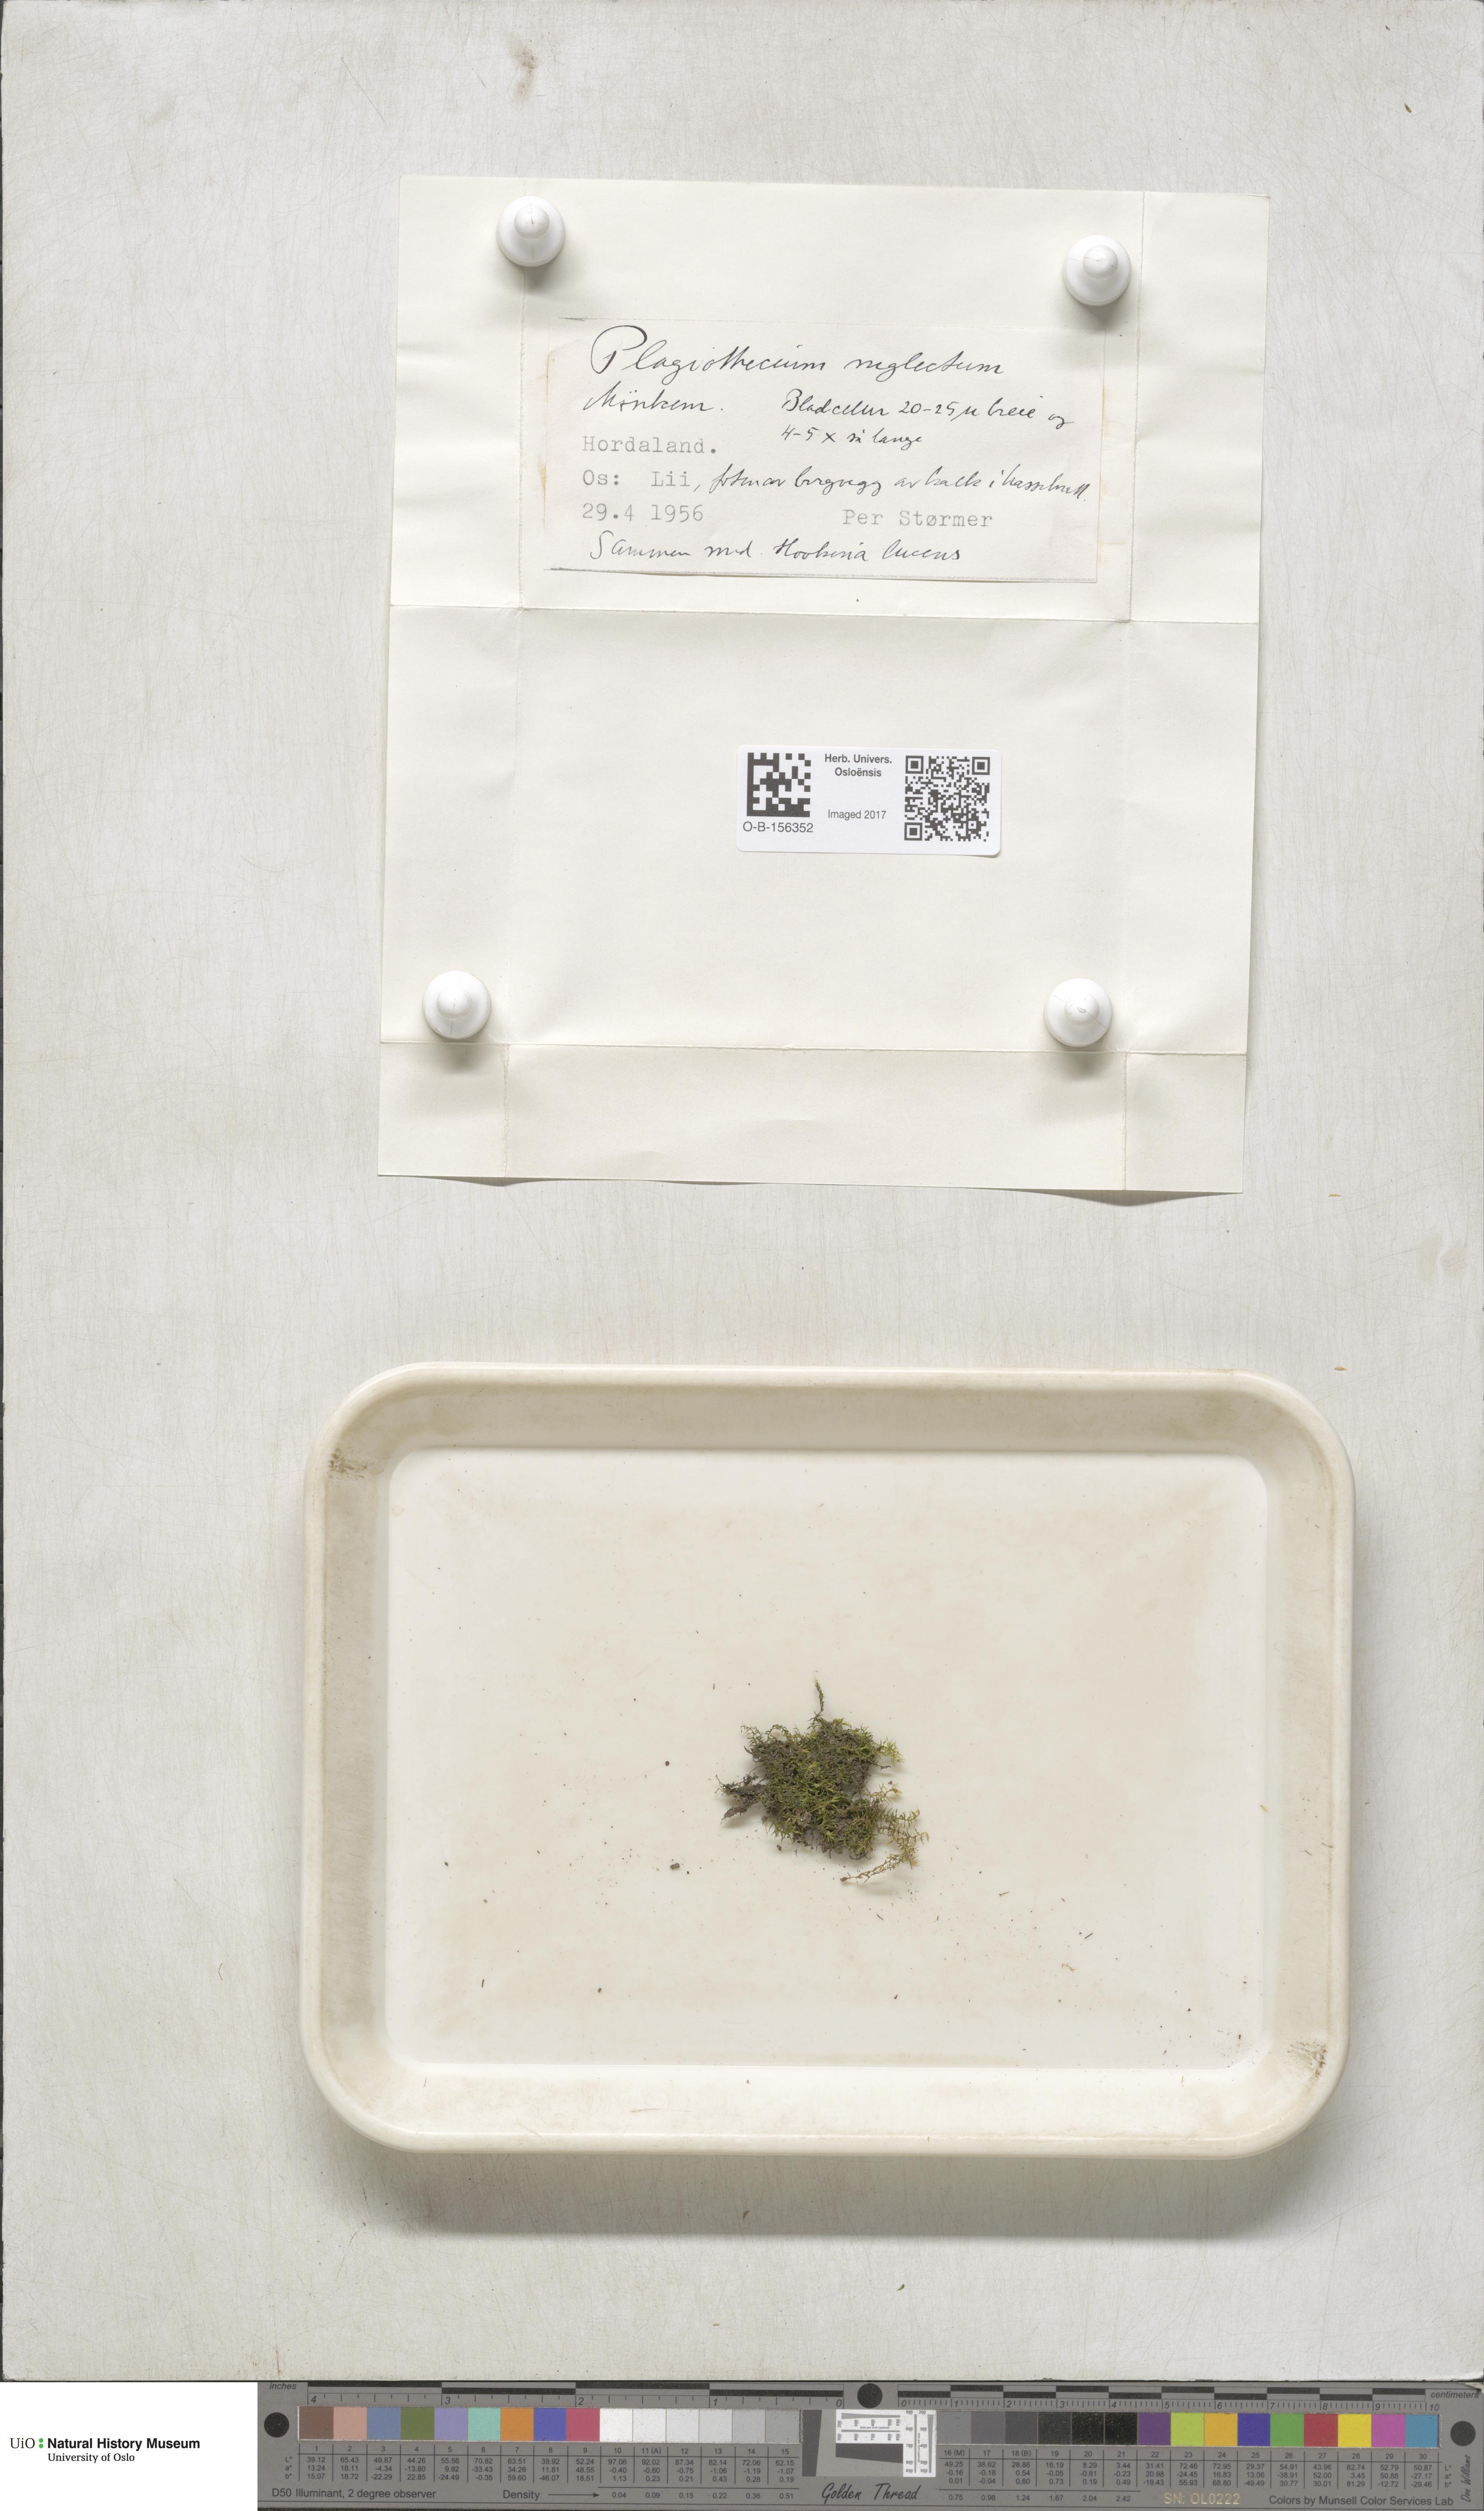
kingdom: Plantae
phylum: Bryophyta
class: Bryopsida
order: Hypnales
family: Plagiotheciaceae
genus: Plagiothecium
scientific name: Plagiothecium nemorale
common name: Woodsy silk-moss
